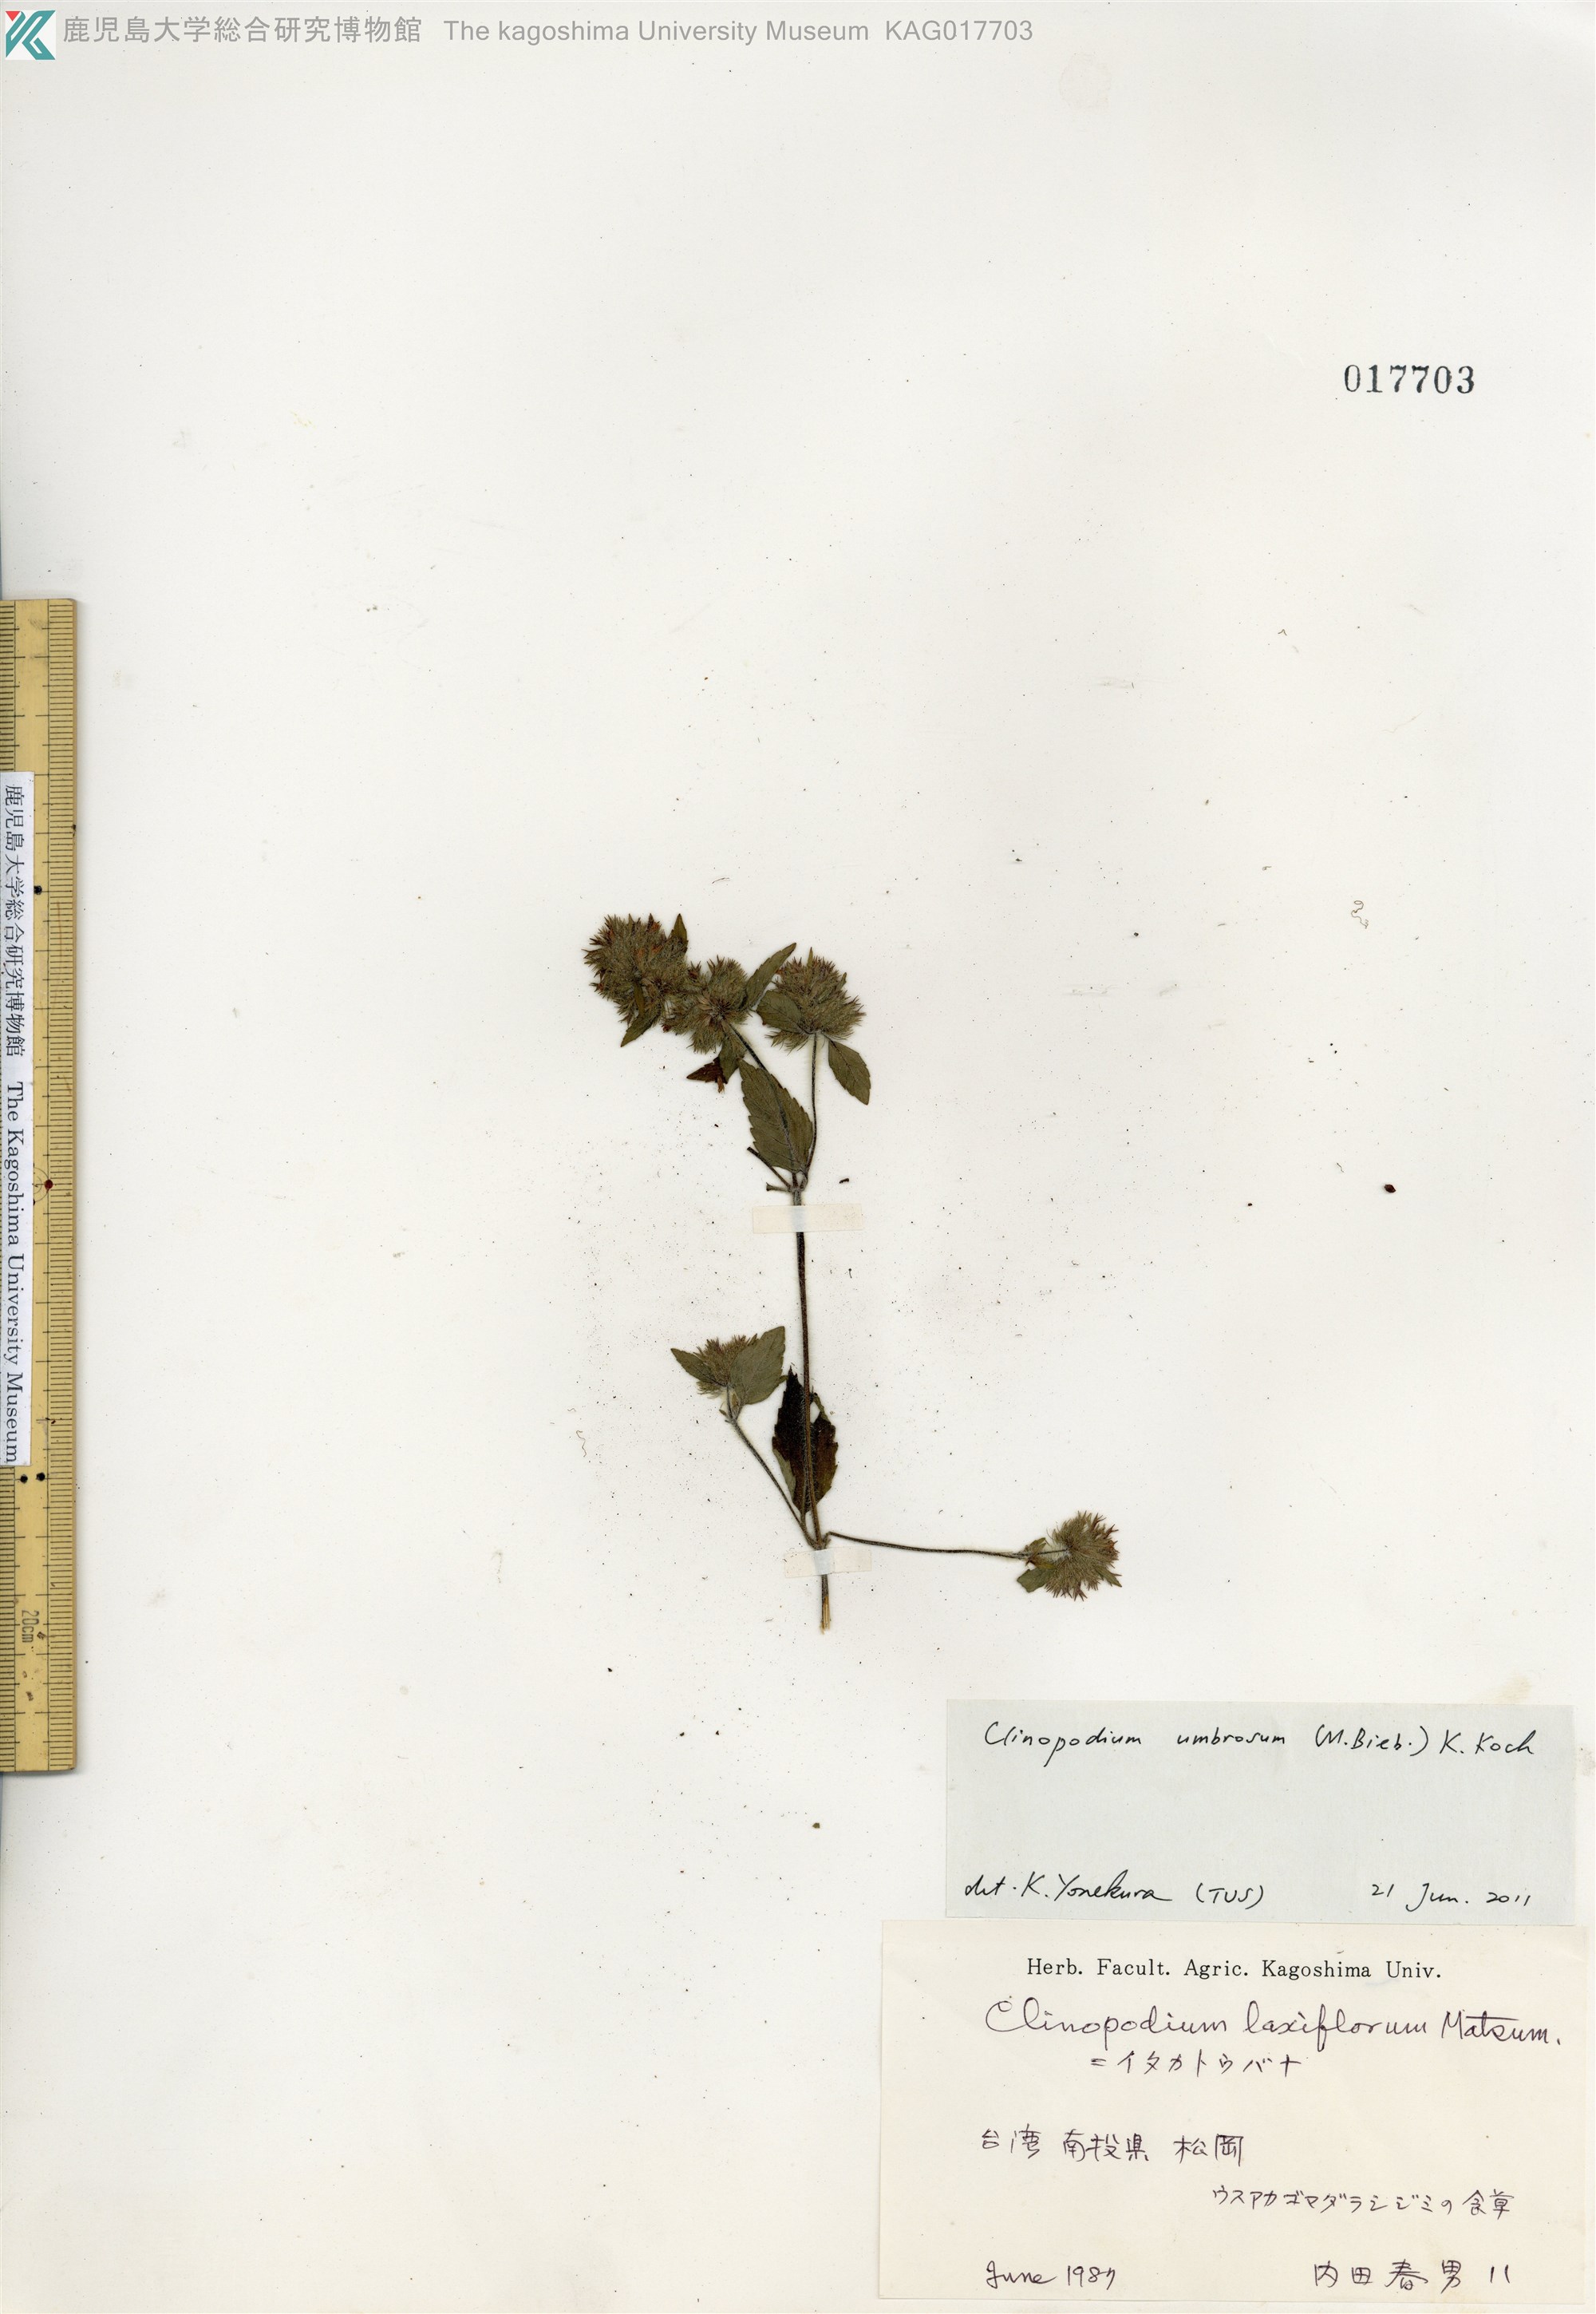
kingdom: Plantae
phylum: Tracheophyta
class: Magnoliopsida
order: Lamiales
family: Lamiaceae
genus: Clinopodium
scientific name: Clinopodium umbrosum
